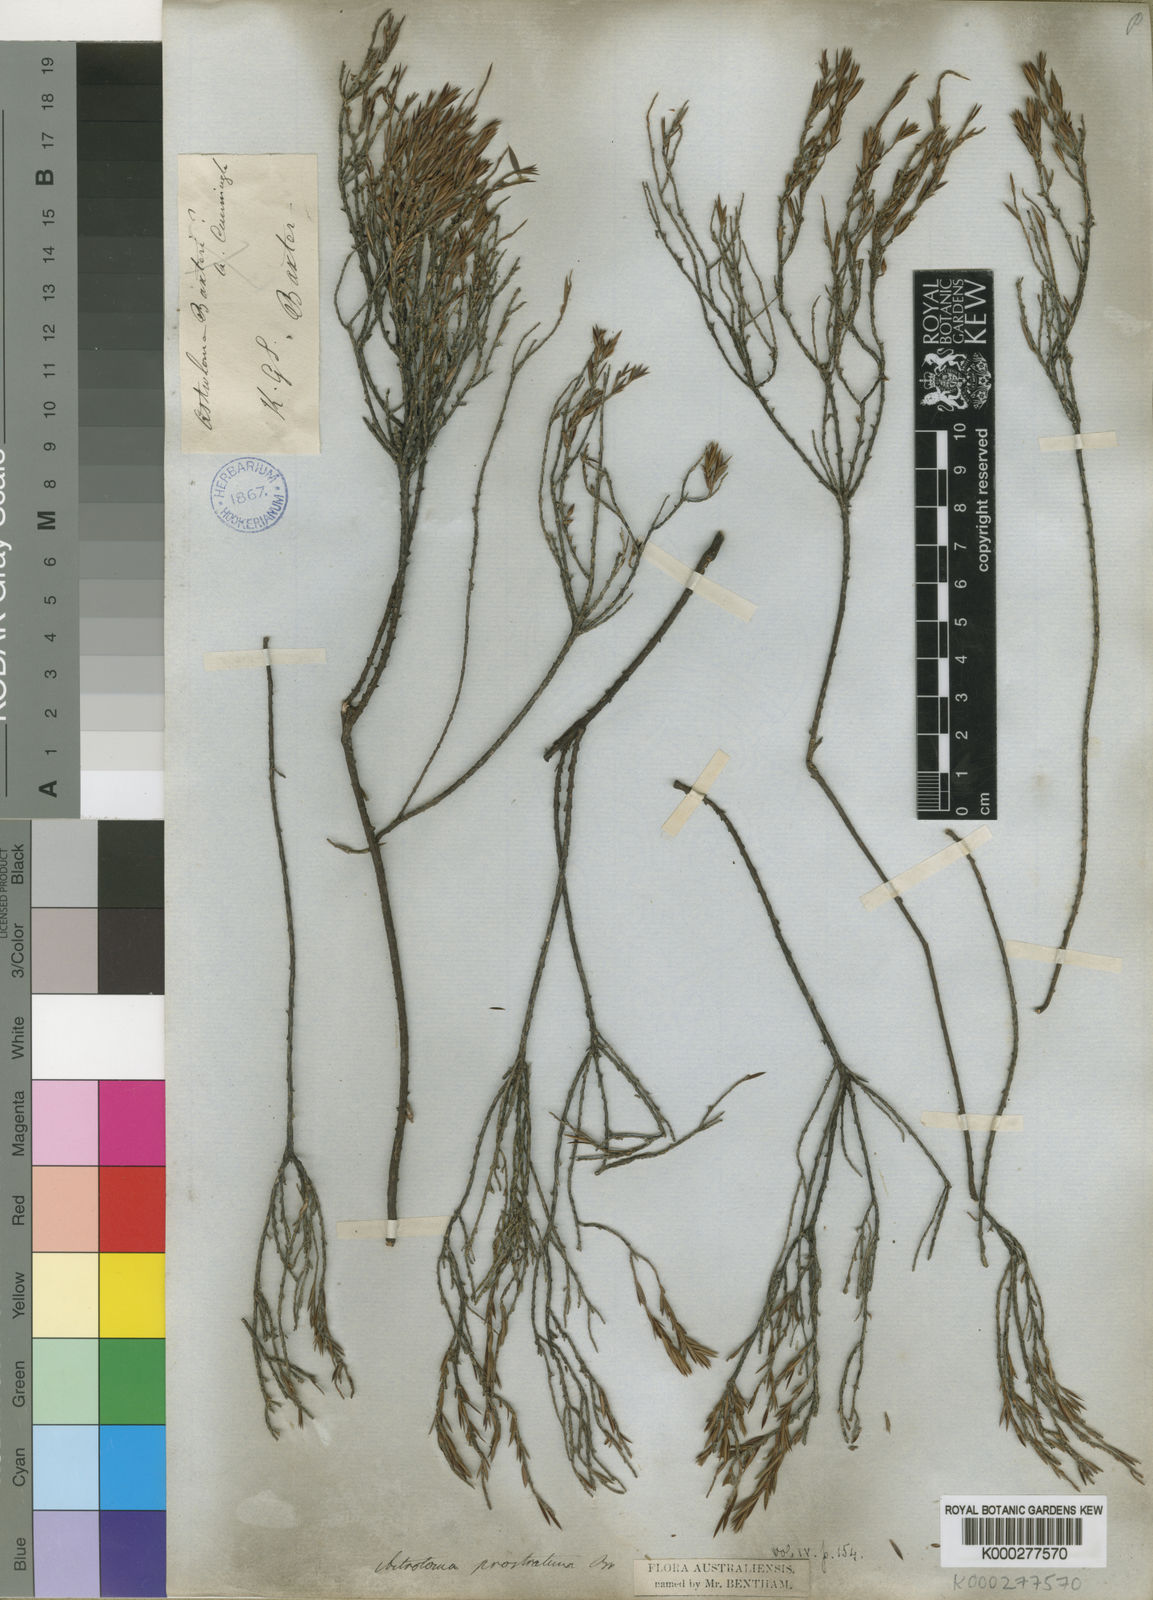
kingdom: Plantae
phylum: Tracheophyta
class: Magnoliopsida
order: Ericales
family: Ericaceae
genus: Styphelia
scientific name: Styphelia prostrata
